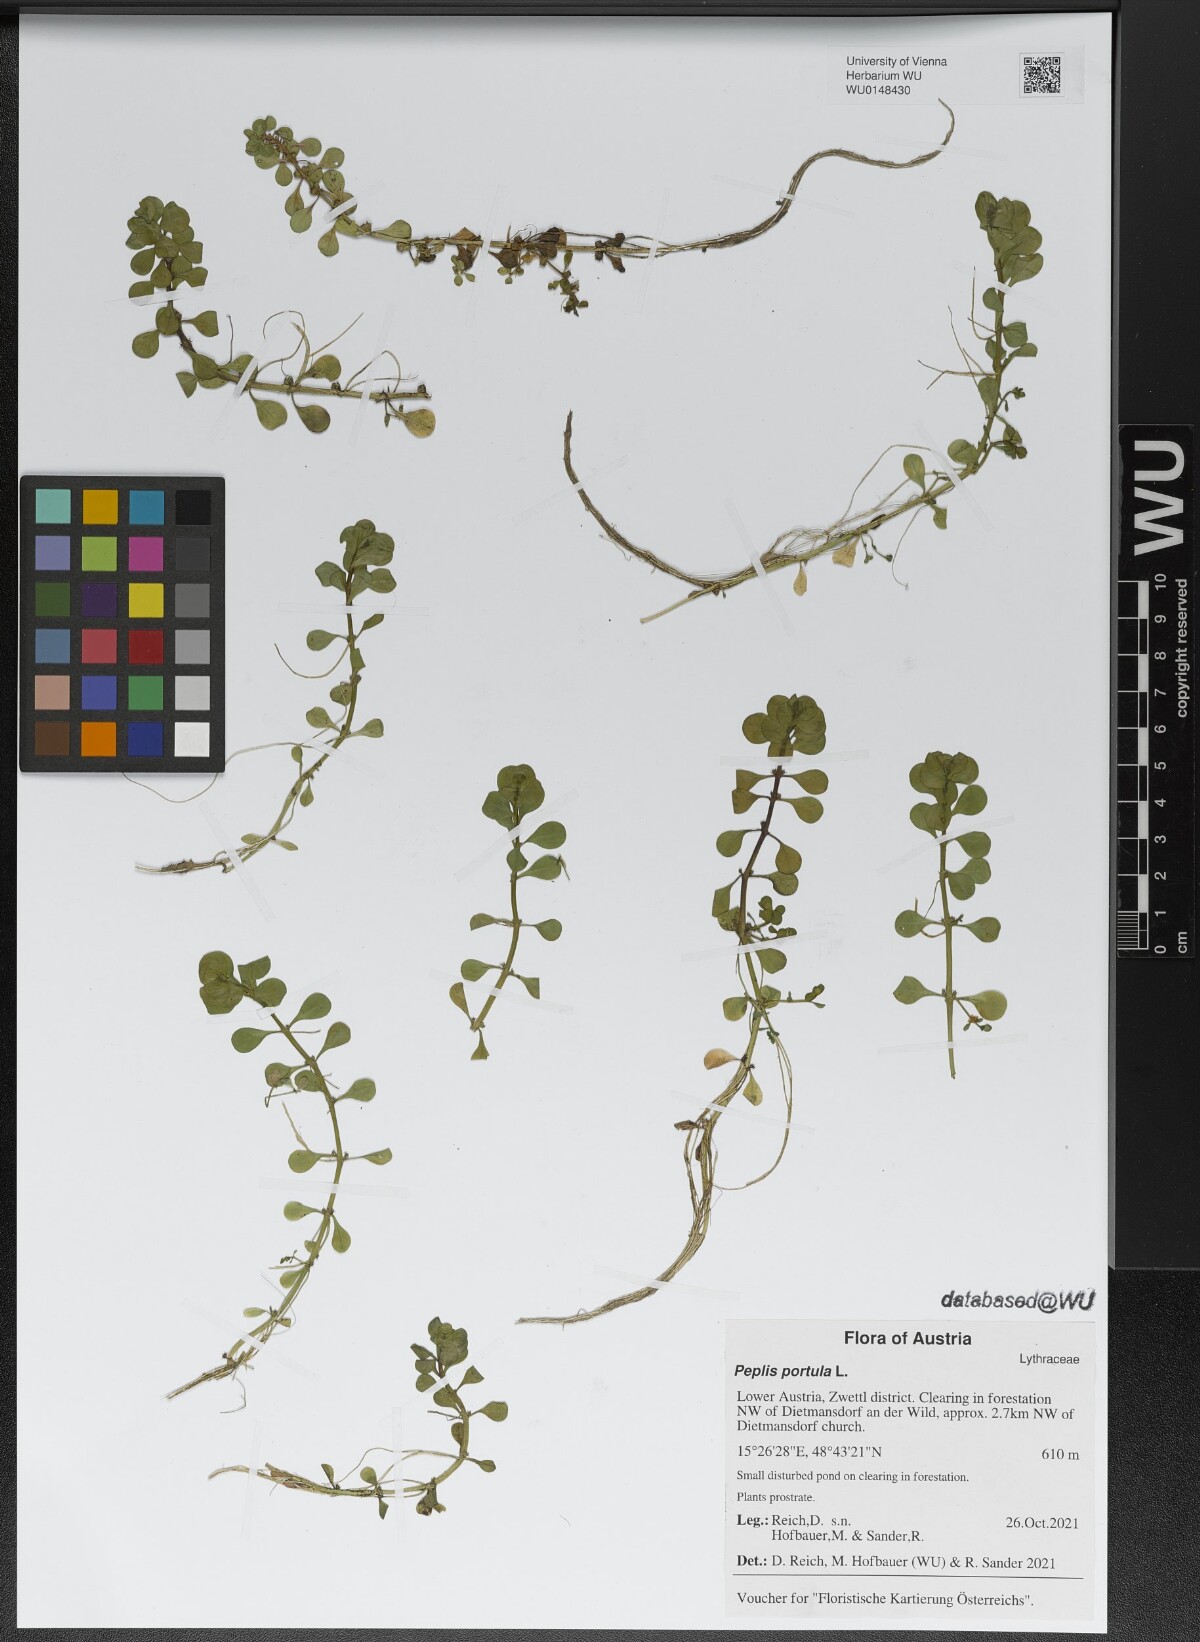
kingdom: Plantae
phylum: Tracheophyta
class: Magnoliopsida
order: Myrtales
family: Lythraceae
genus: Lythrum
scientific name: Lythrum portula
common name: Water purslane
